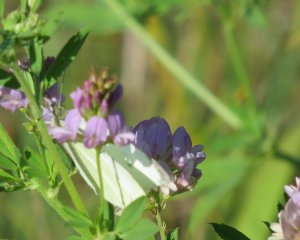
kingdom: Animalia
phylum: Arthropoda
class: Insecta
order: Lepidoptera
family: Pieridae
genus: Pieris
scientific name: Pieris rapae
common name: Cabbage White
